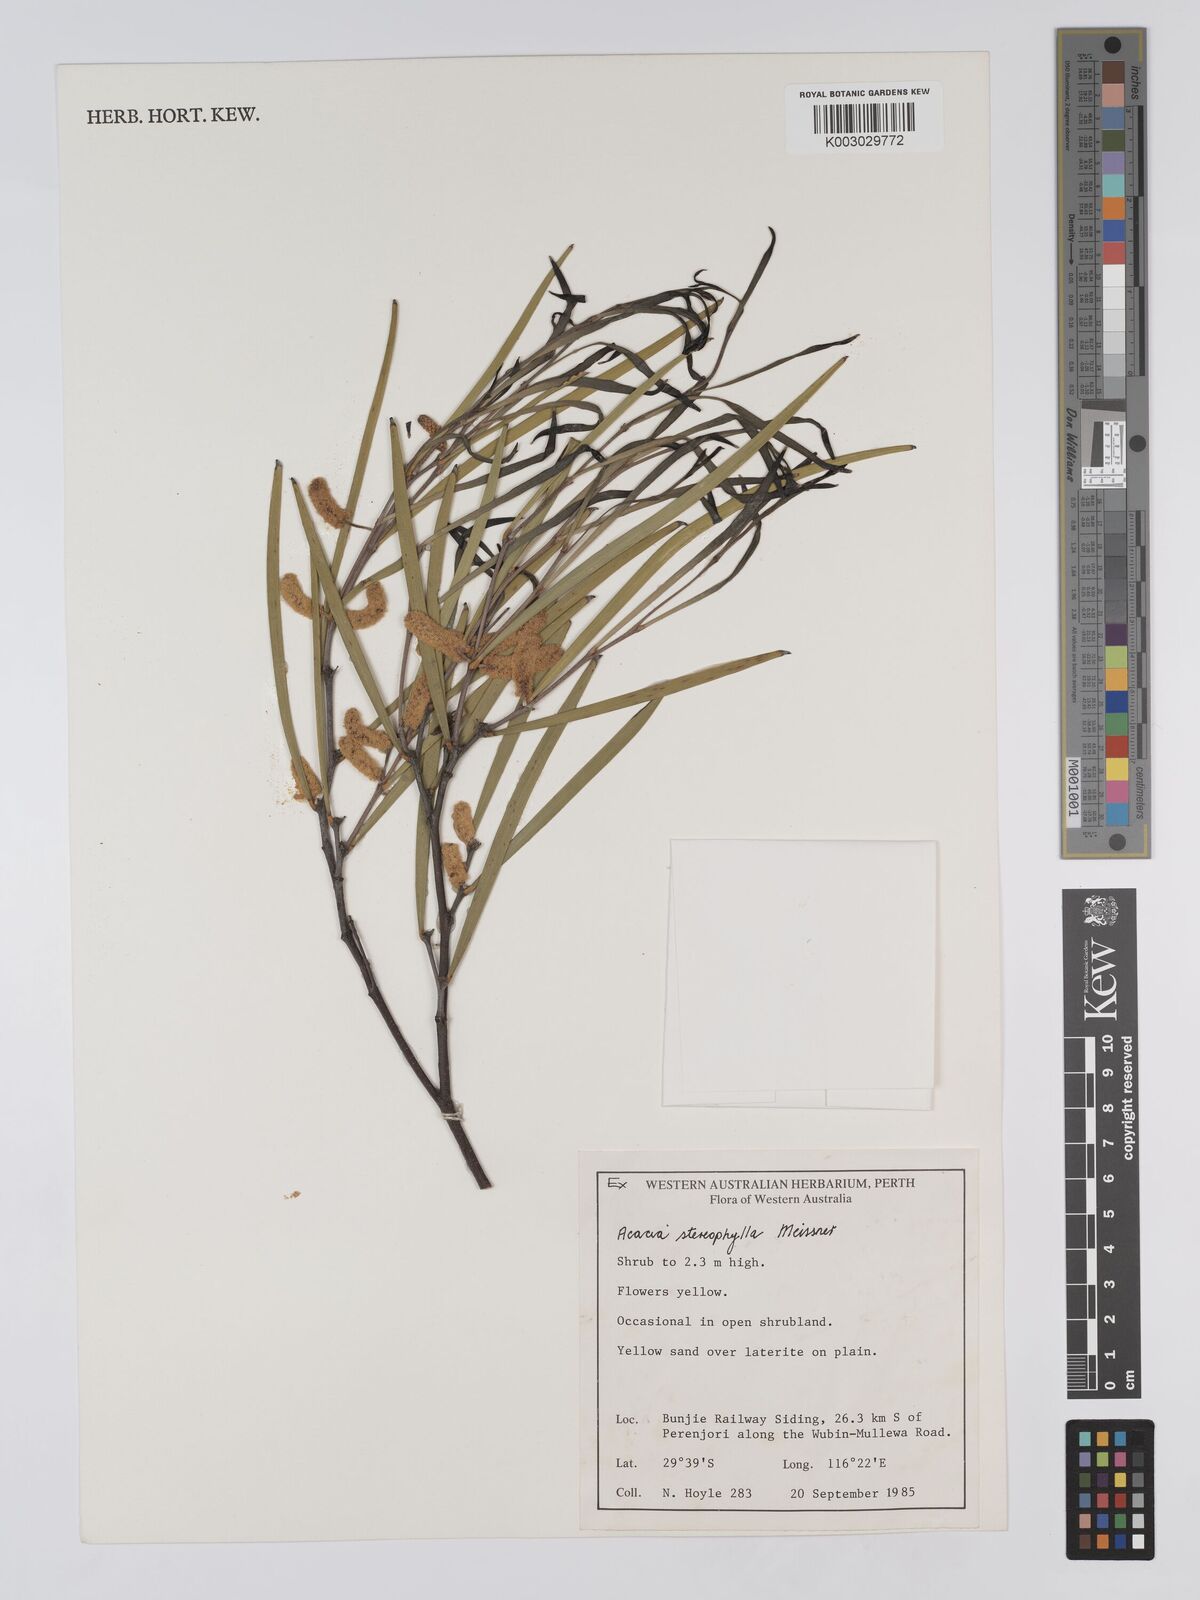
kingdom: Plantae
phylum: Tracheophyta
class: Magnoliopsida
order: Fabales
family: Fabaceae
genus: Acacia
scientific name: Acacia stereophylla
